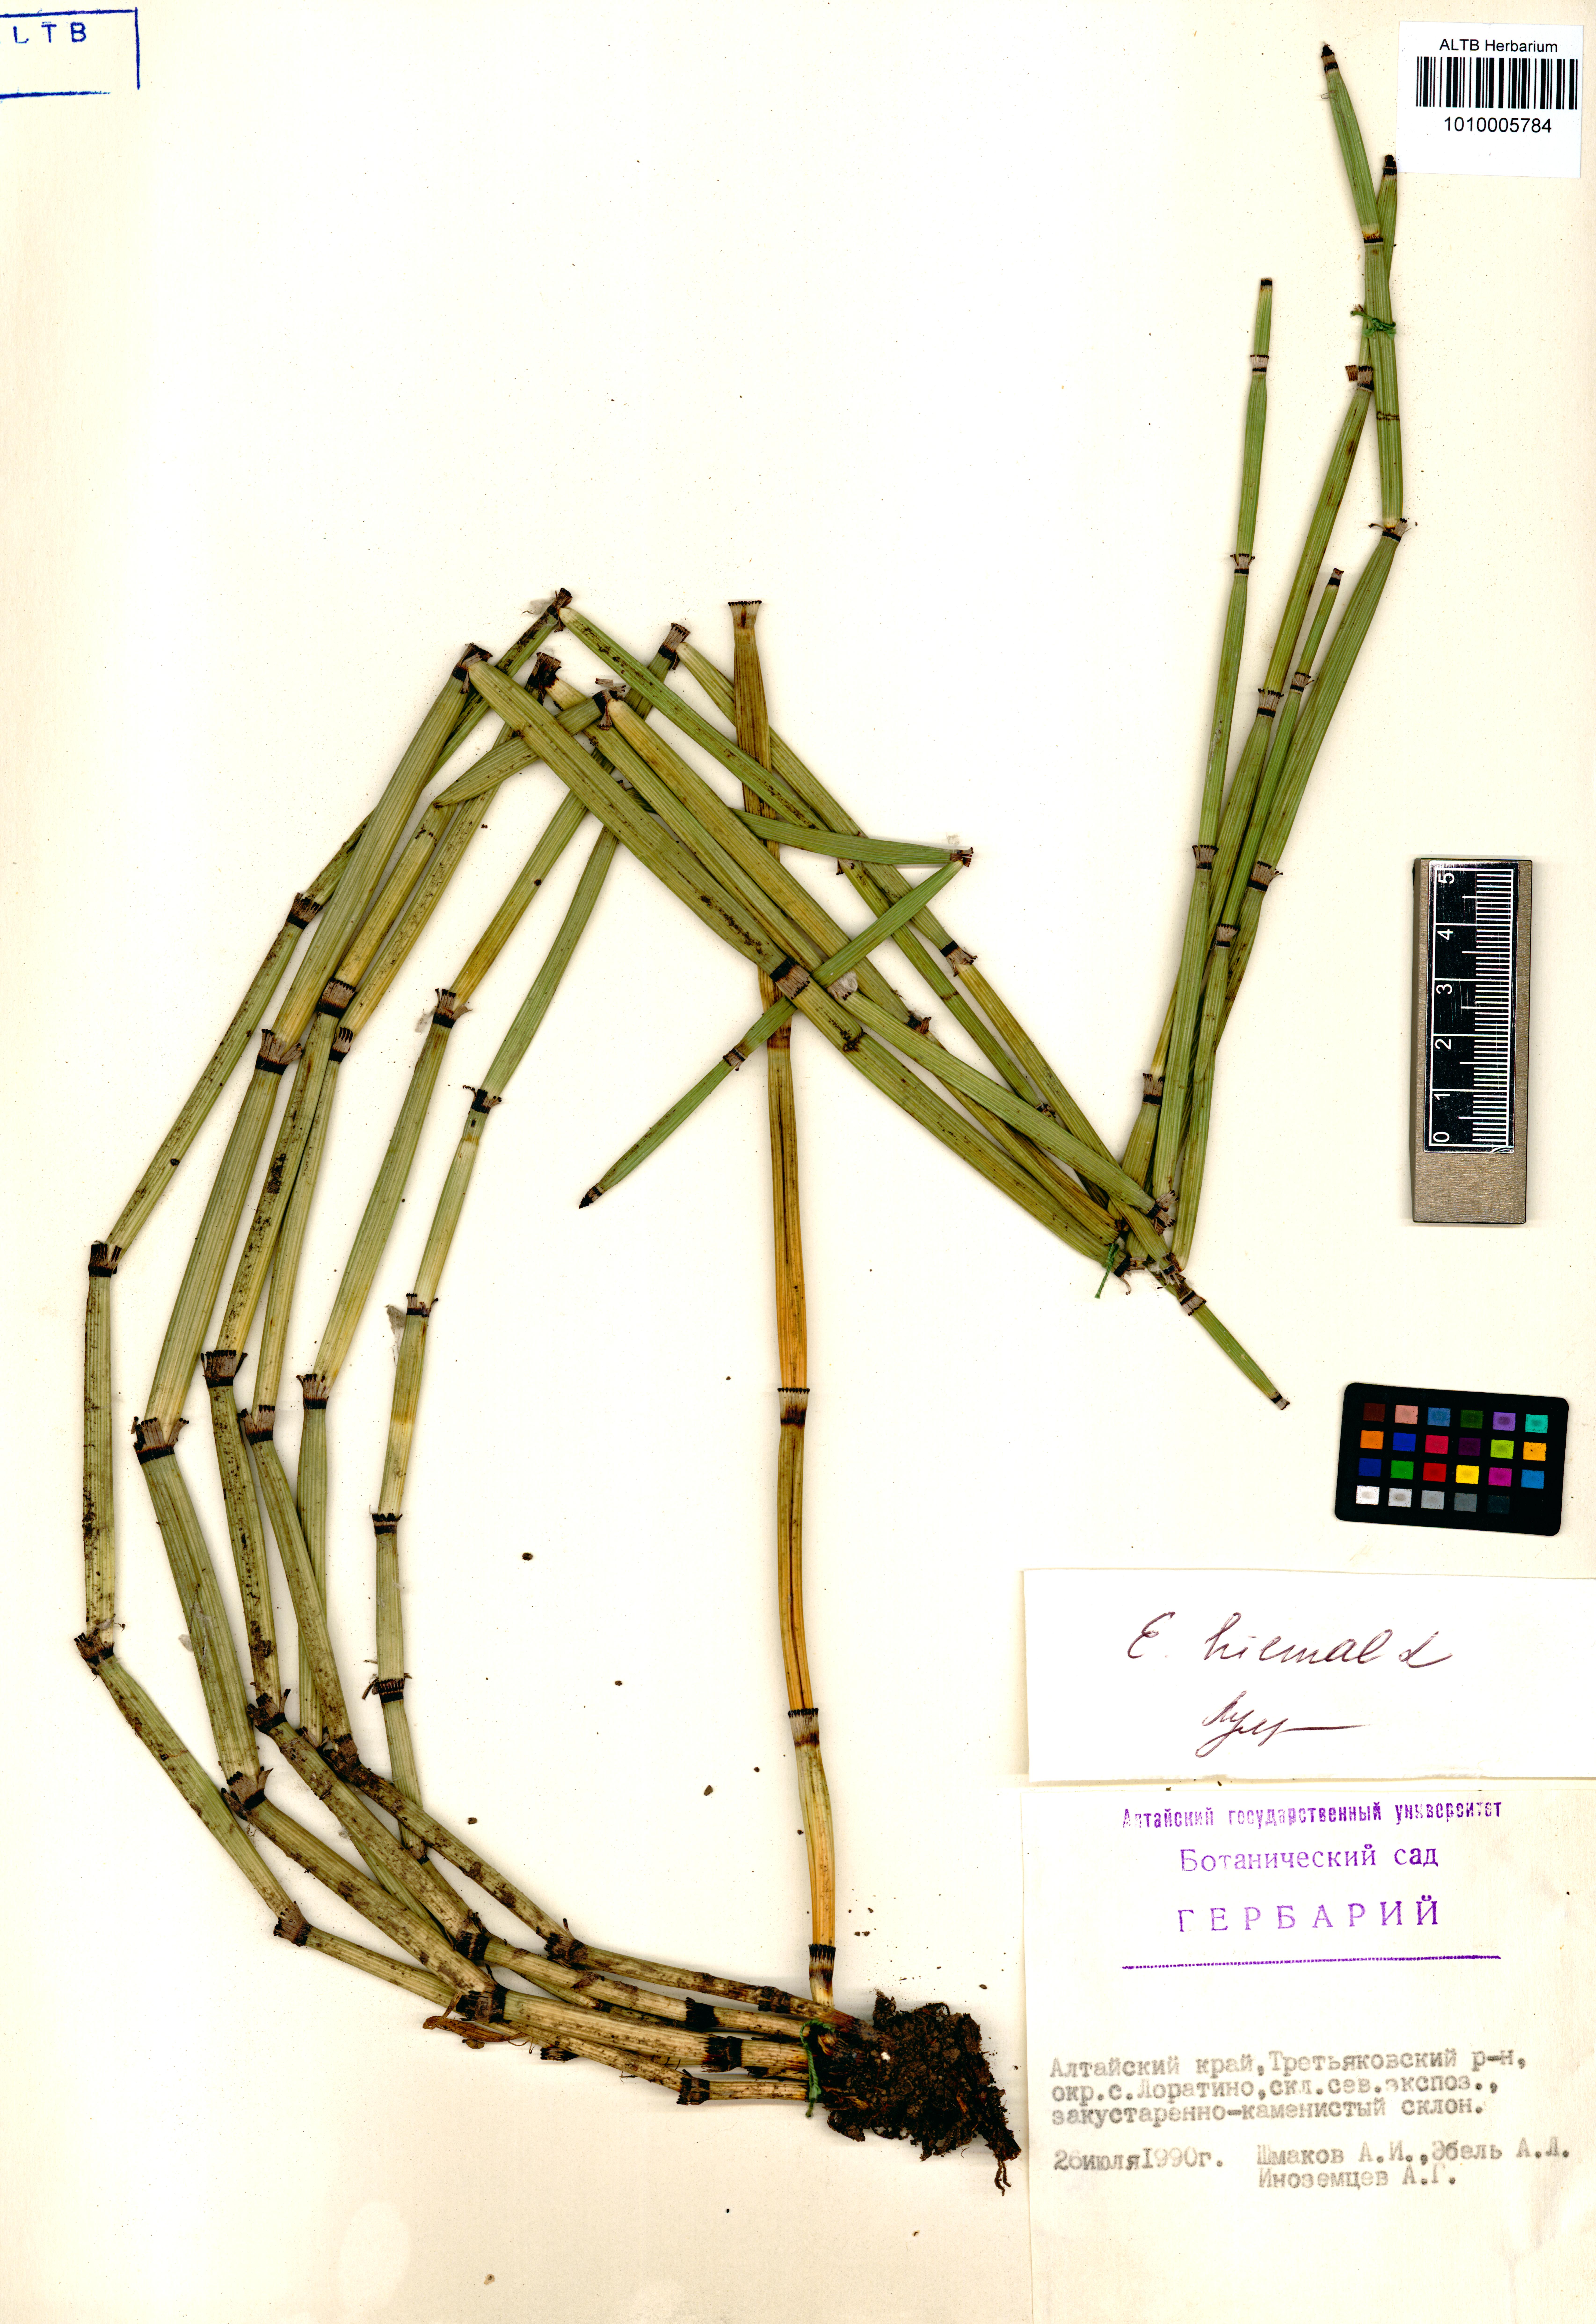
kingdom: Plantae
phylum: Tracheophyta
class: Polypodiopsida
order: Equisetales
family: Equisetaceae
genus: Equisetum
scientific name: Equisetum hyemale
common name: Rough horsetail
